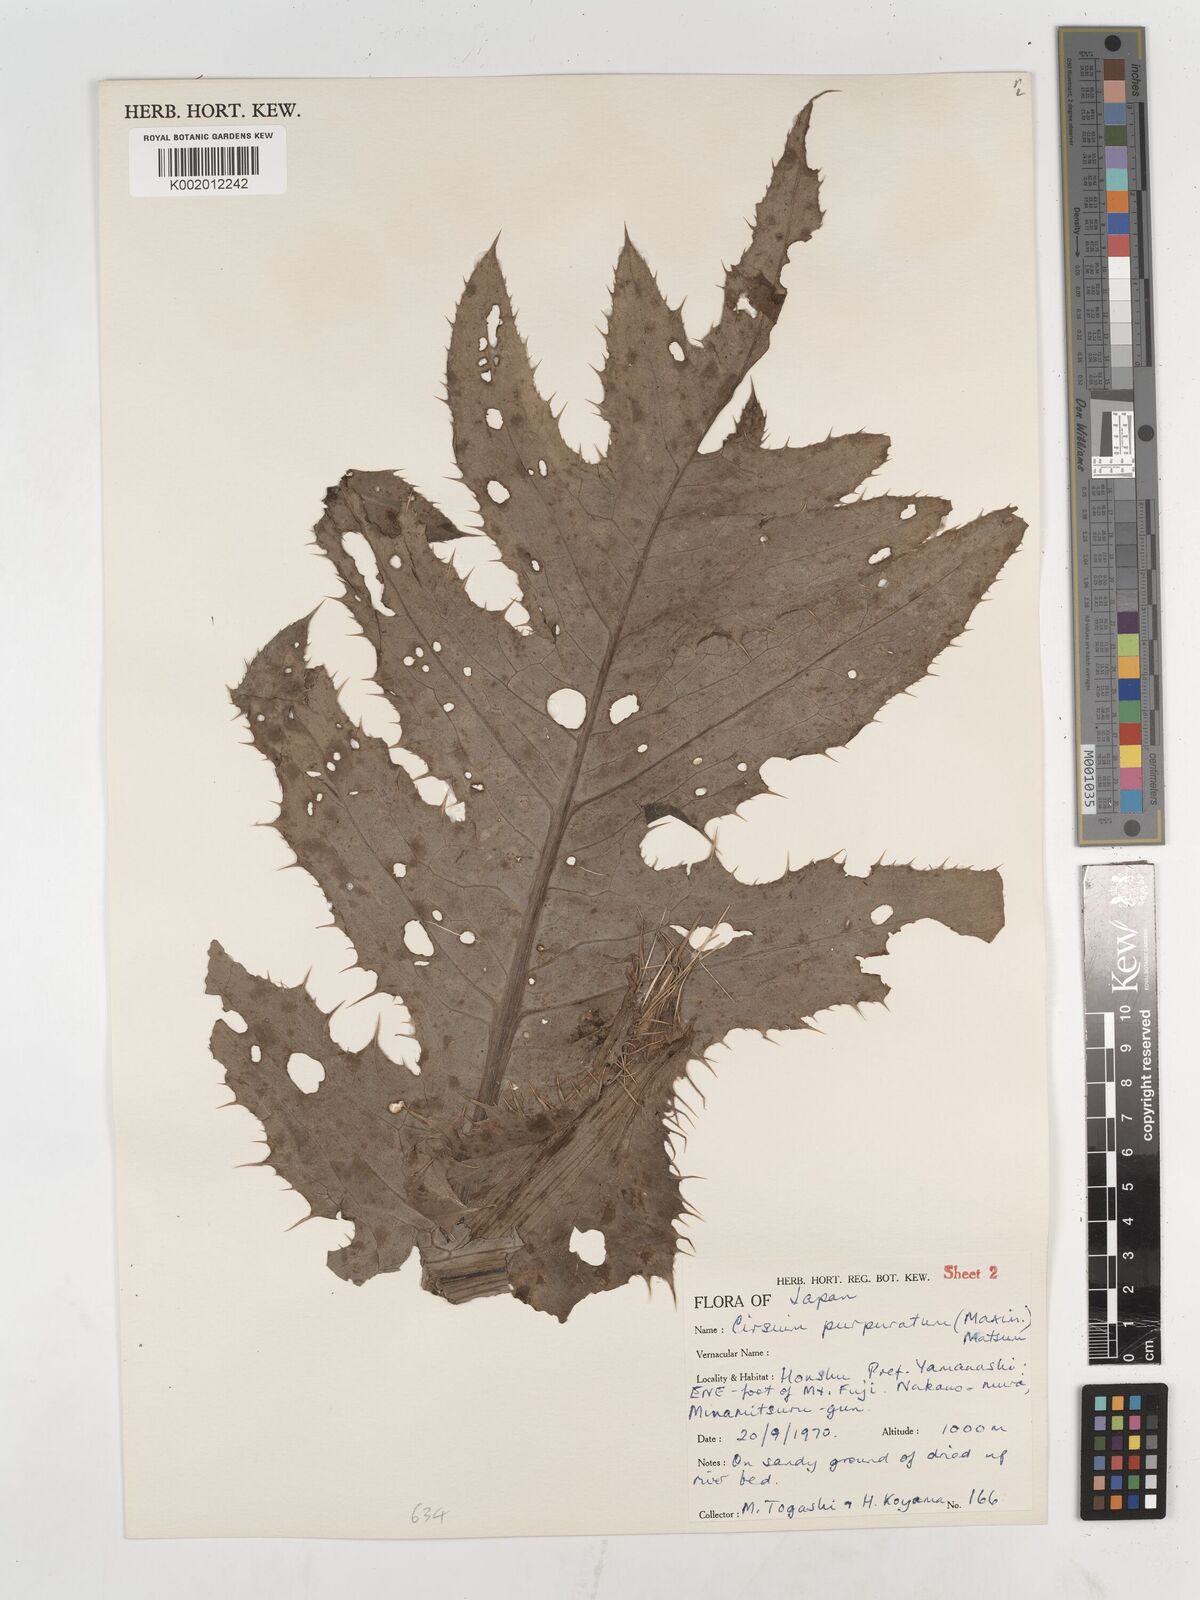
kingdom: Plantae
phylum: Tracheophyta
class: Magnoliopsida
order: Asterales
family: Asteraceae
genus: Cirsium
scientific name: Cirsium purpuratum
